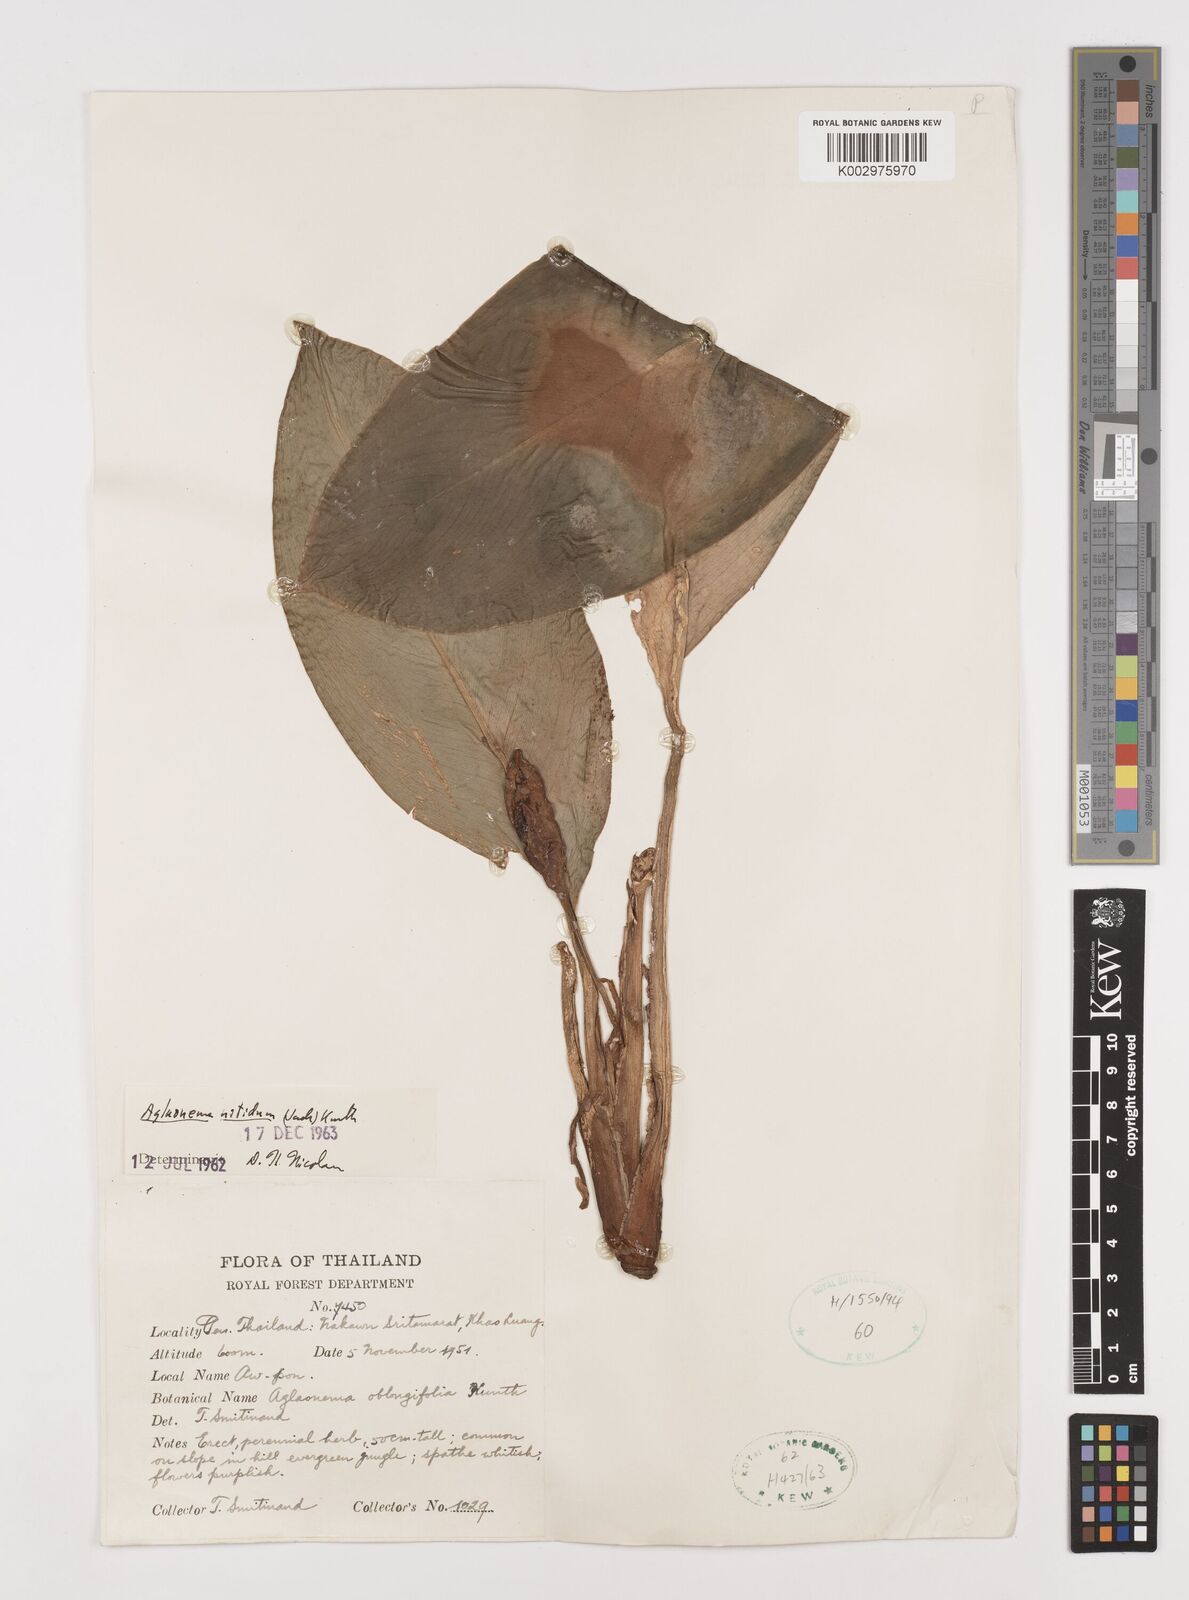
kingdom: Plantae
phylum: Tracheophyta
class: Liliopsida
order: Alismatales
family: Araceae
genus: Aglaonema
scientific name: Aglaonema nitidum
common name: Aglaonema aroid
